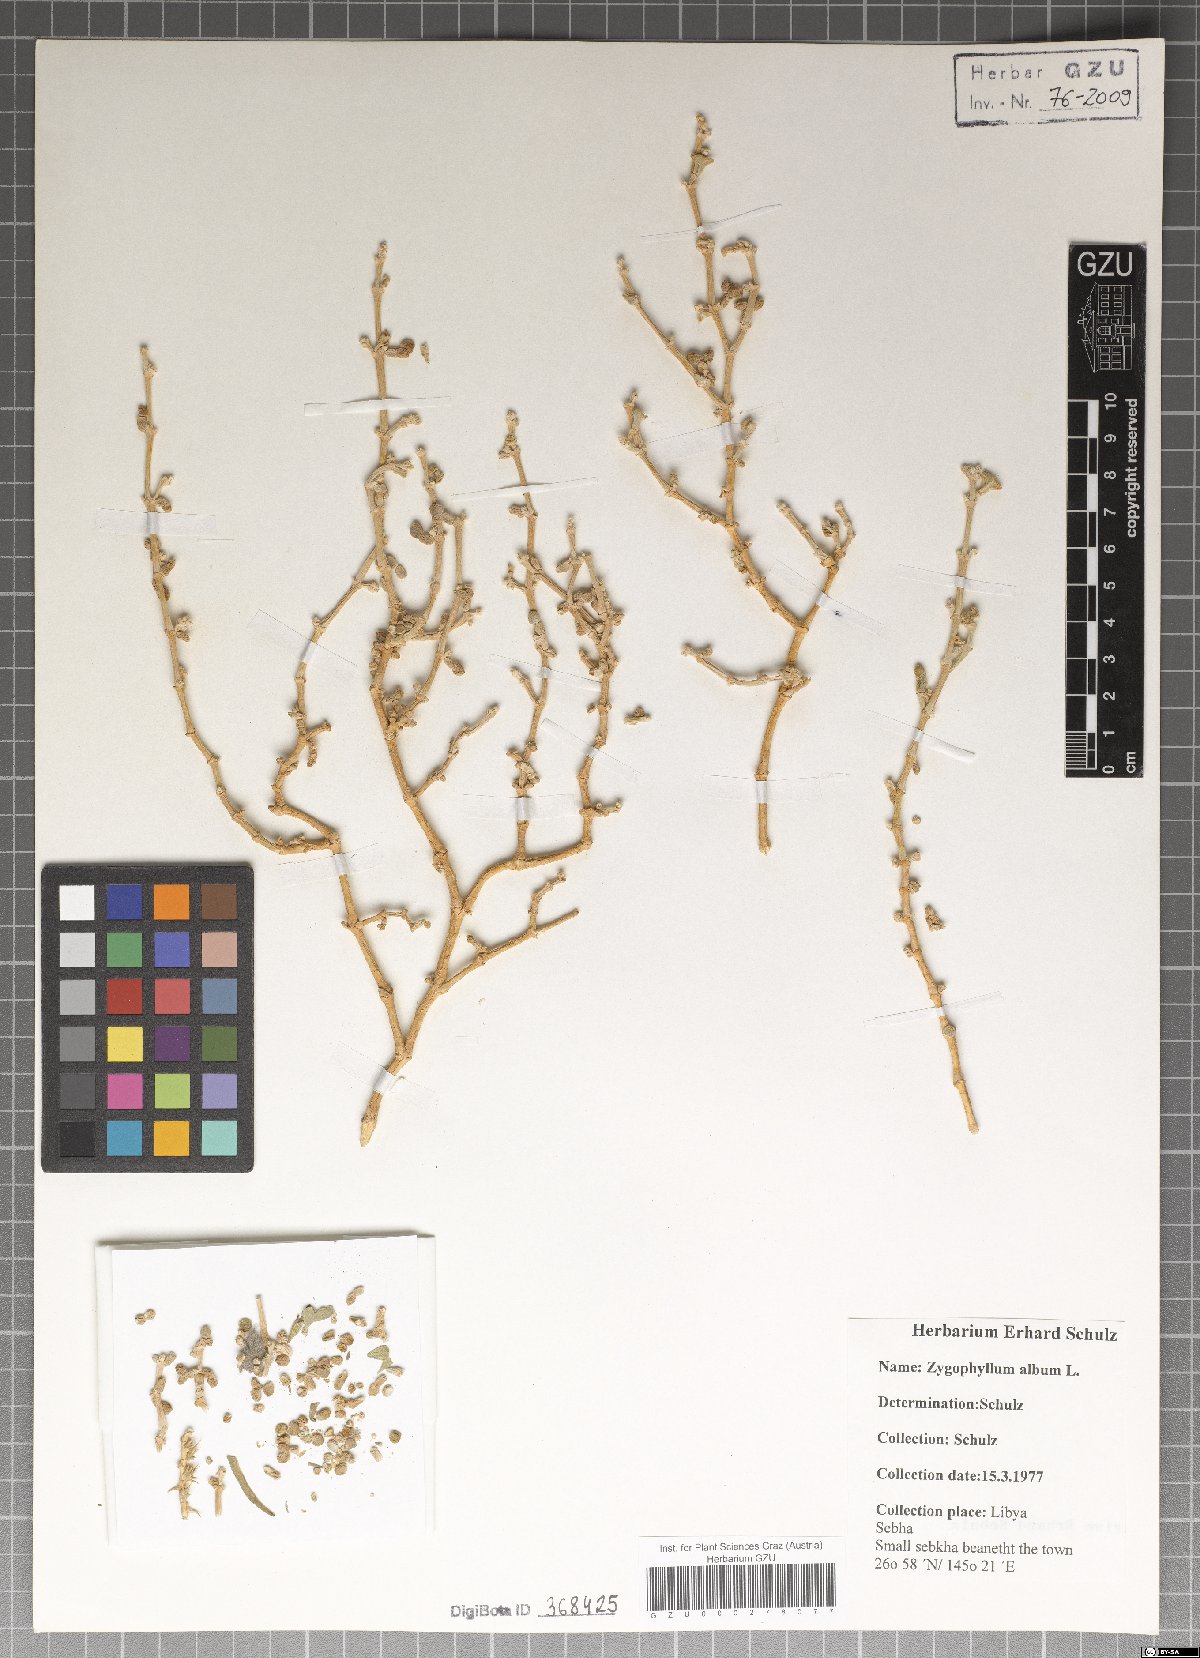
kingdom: Plantae
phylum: Tracheophyta
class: Magnoliopsida
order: Zygophyllales
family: Zygophyllaceae
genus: Tetraena
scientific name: Tetraena alba
